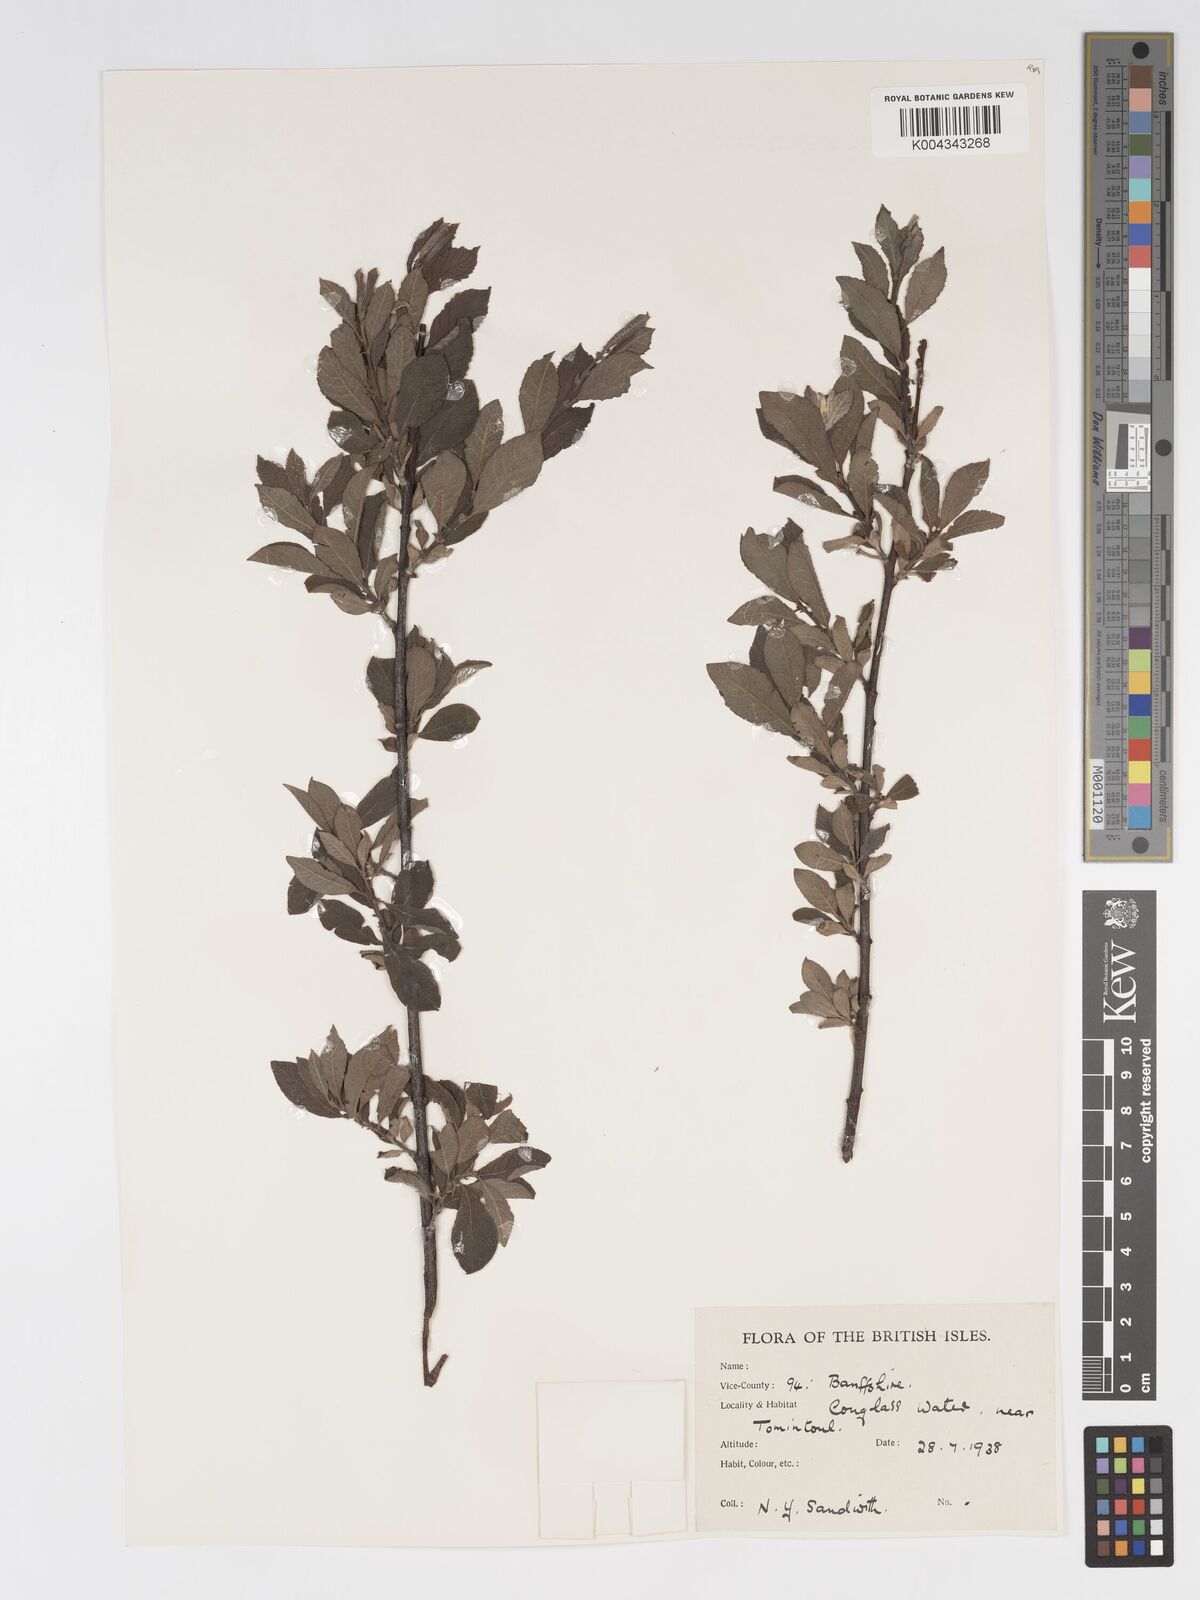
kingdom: Plantae
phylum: Tracheophyta
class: Magnoliopsida
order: Malpighiales
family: Salicaceae
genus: Salix
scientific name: Salix aurita
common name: Eared willow
